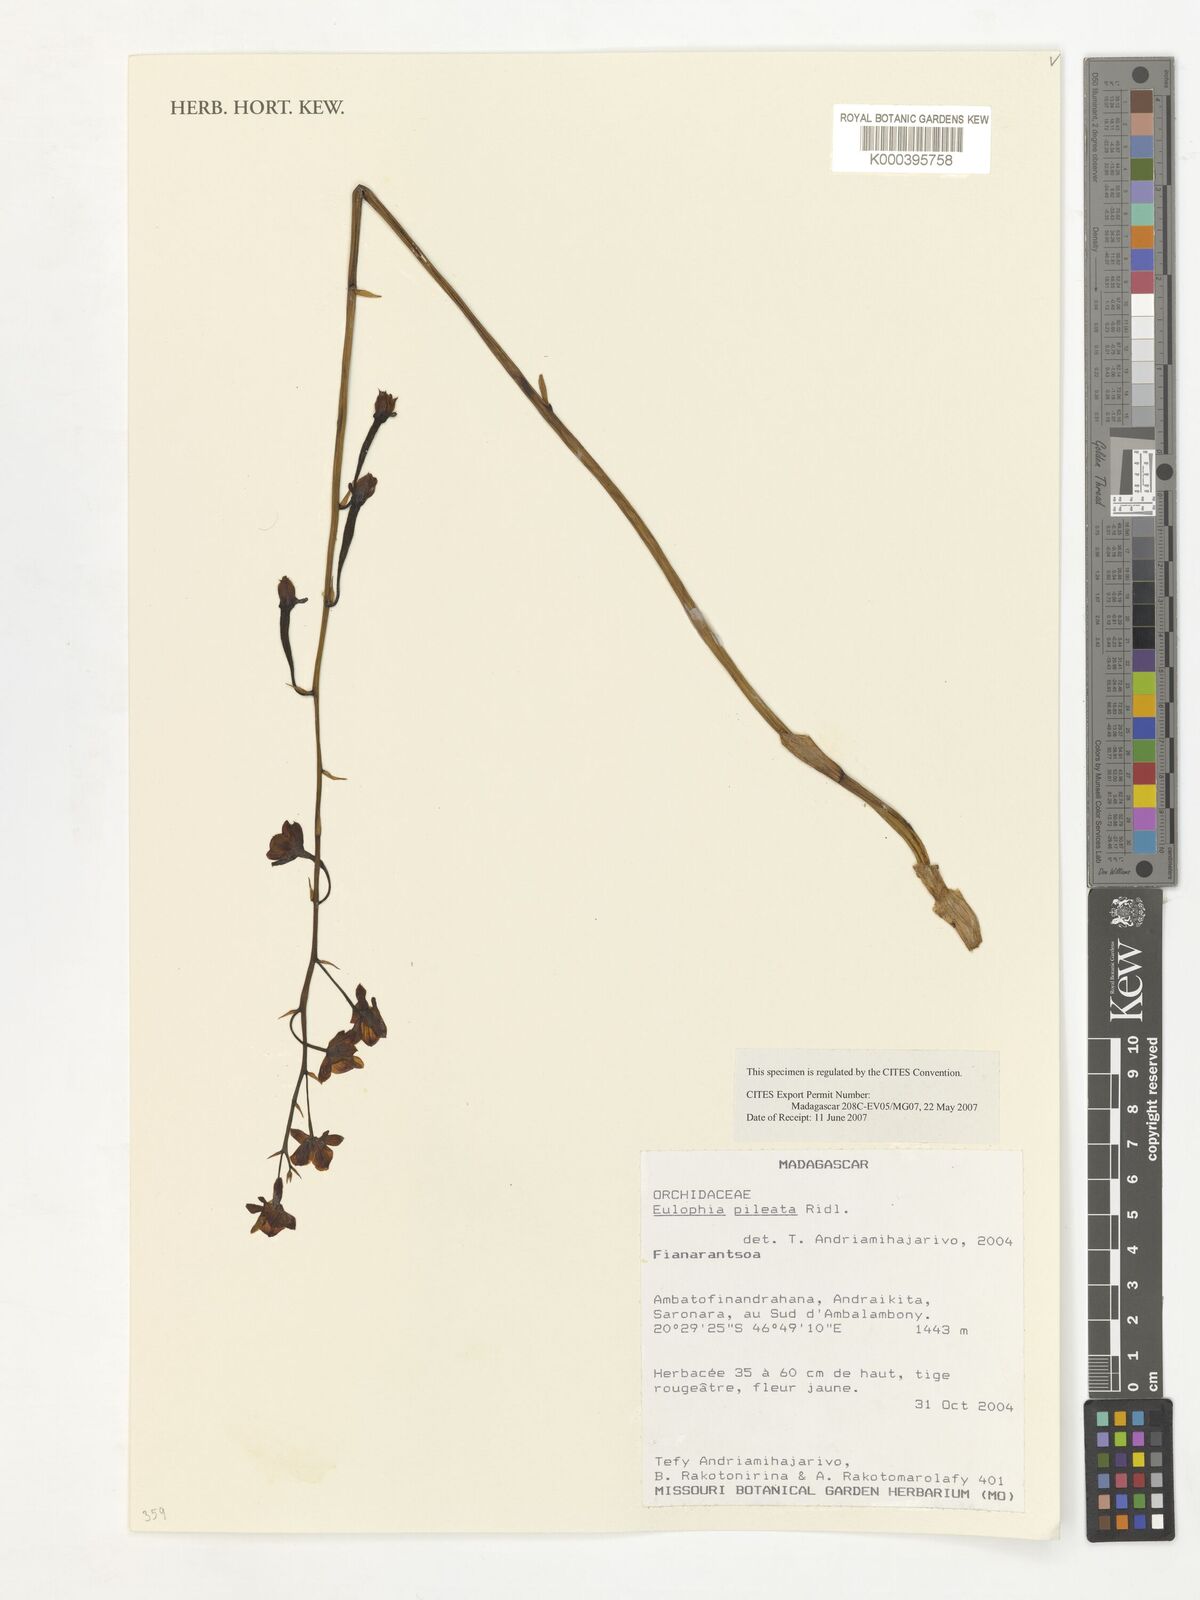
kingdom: Plantae
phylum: Tracheophyta
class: Liliopsida
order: Asparagales
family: Orchidaceae
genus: Eulophia
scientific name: Eulophia pileata
